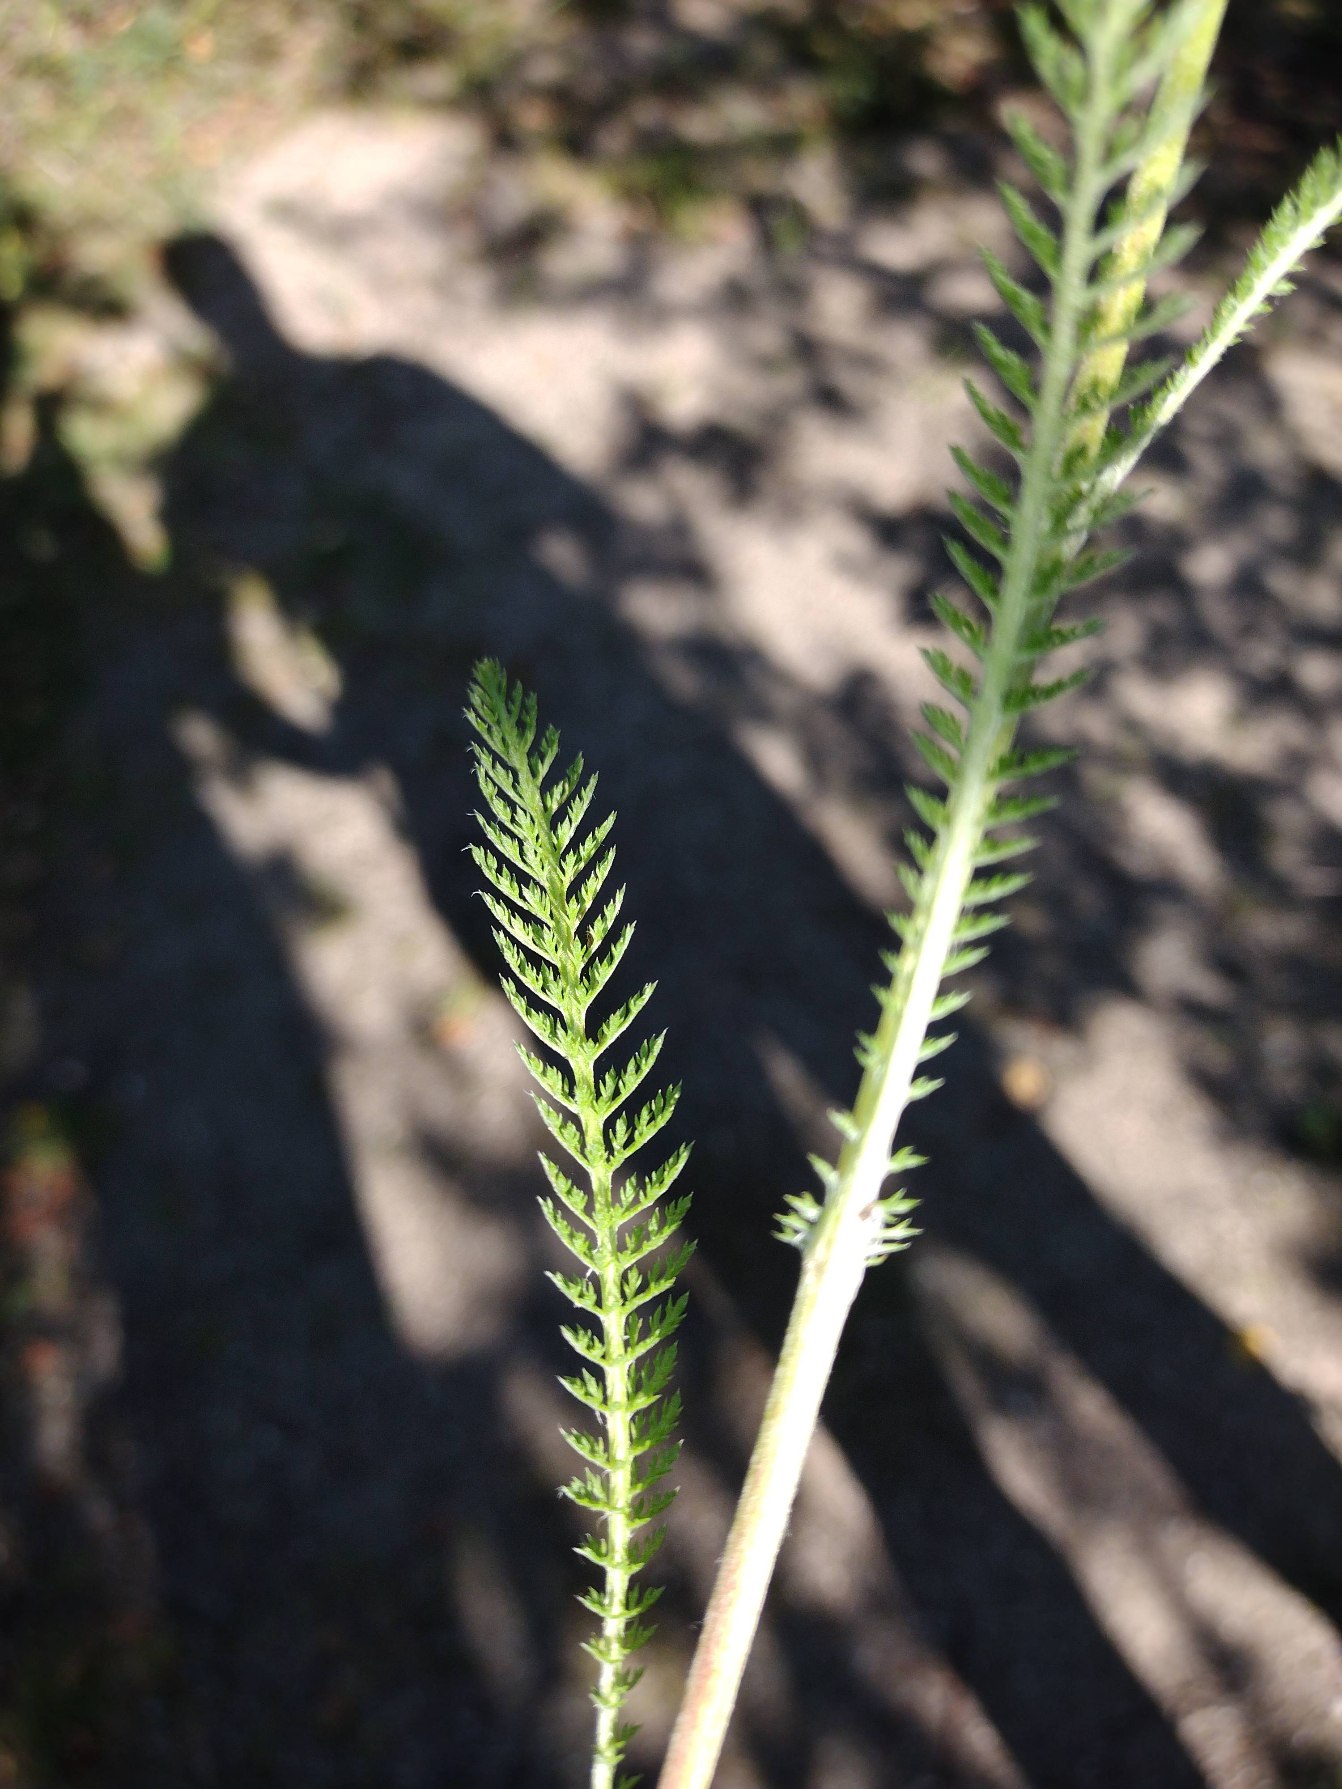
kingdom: Plantae
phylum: Tracheophyta
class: Magnoliopsida
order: Asterales
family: Asteraceae
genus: Achillea
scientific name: Achillea millefolium
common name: Almindelig røllike
